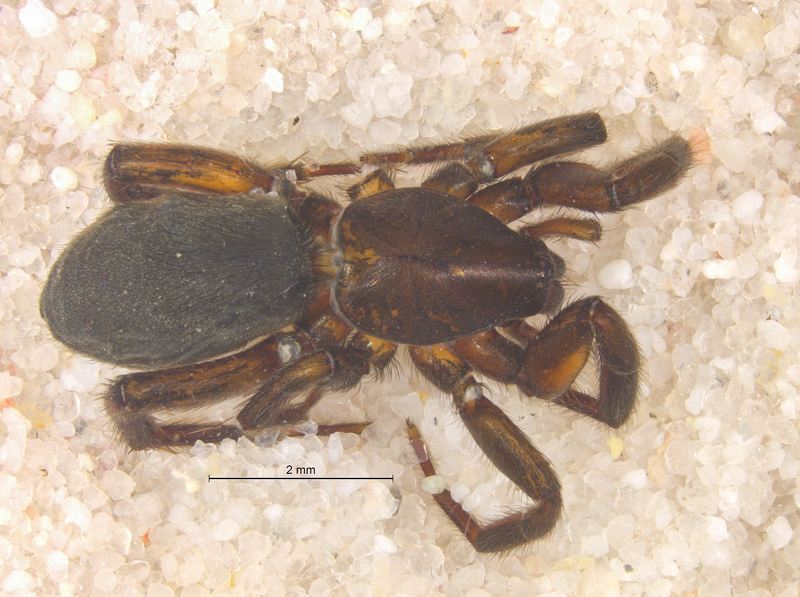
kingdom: Animalia
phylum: Arthropoda
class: Arachnida
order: Araneae
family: Gnaphosidae
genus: Zelotes
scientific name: Zelotes longipes
